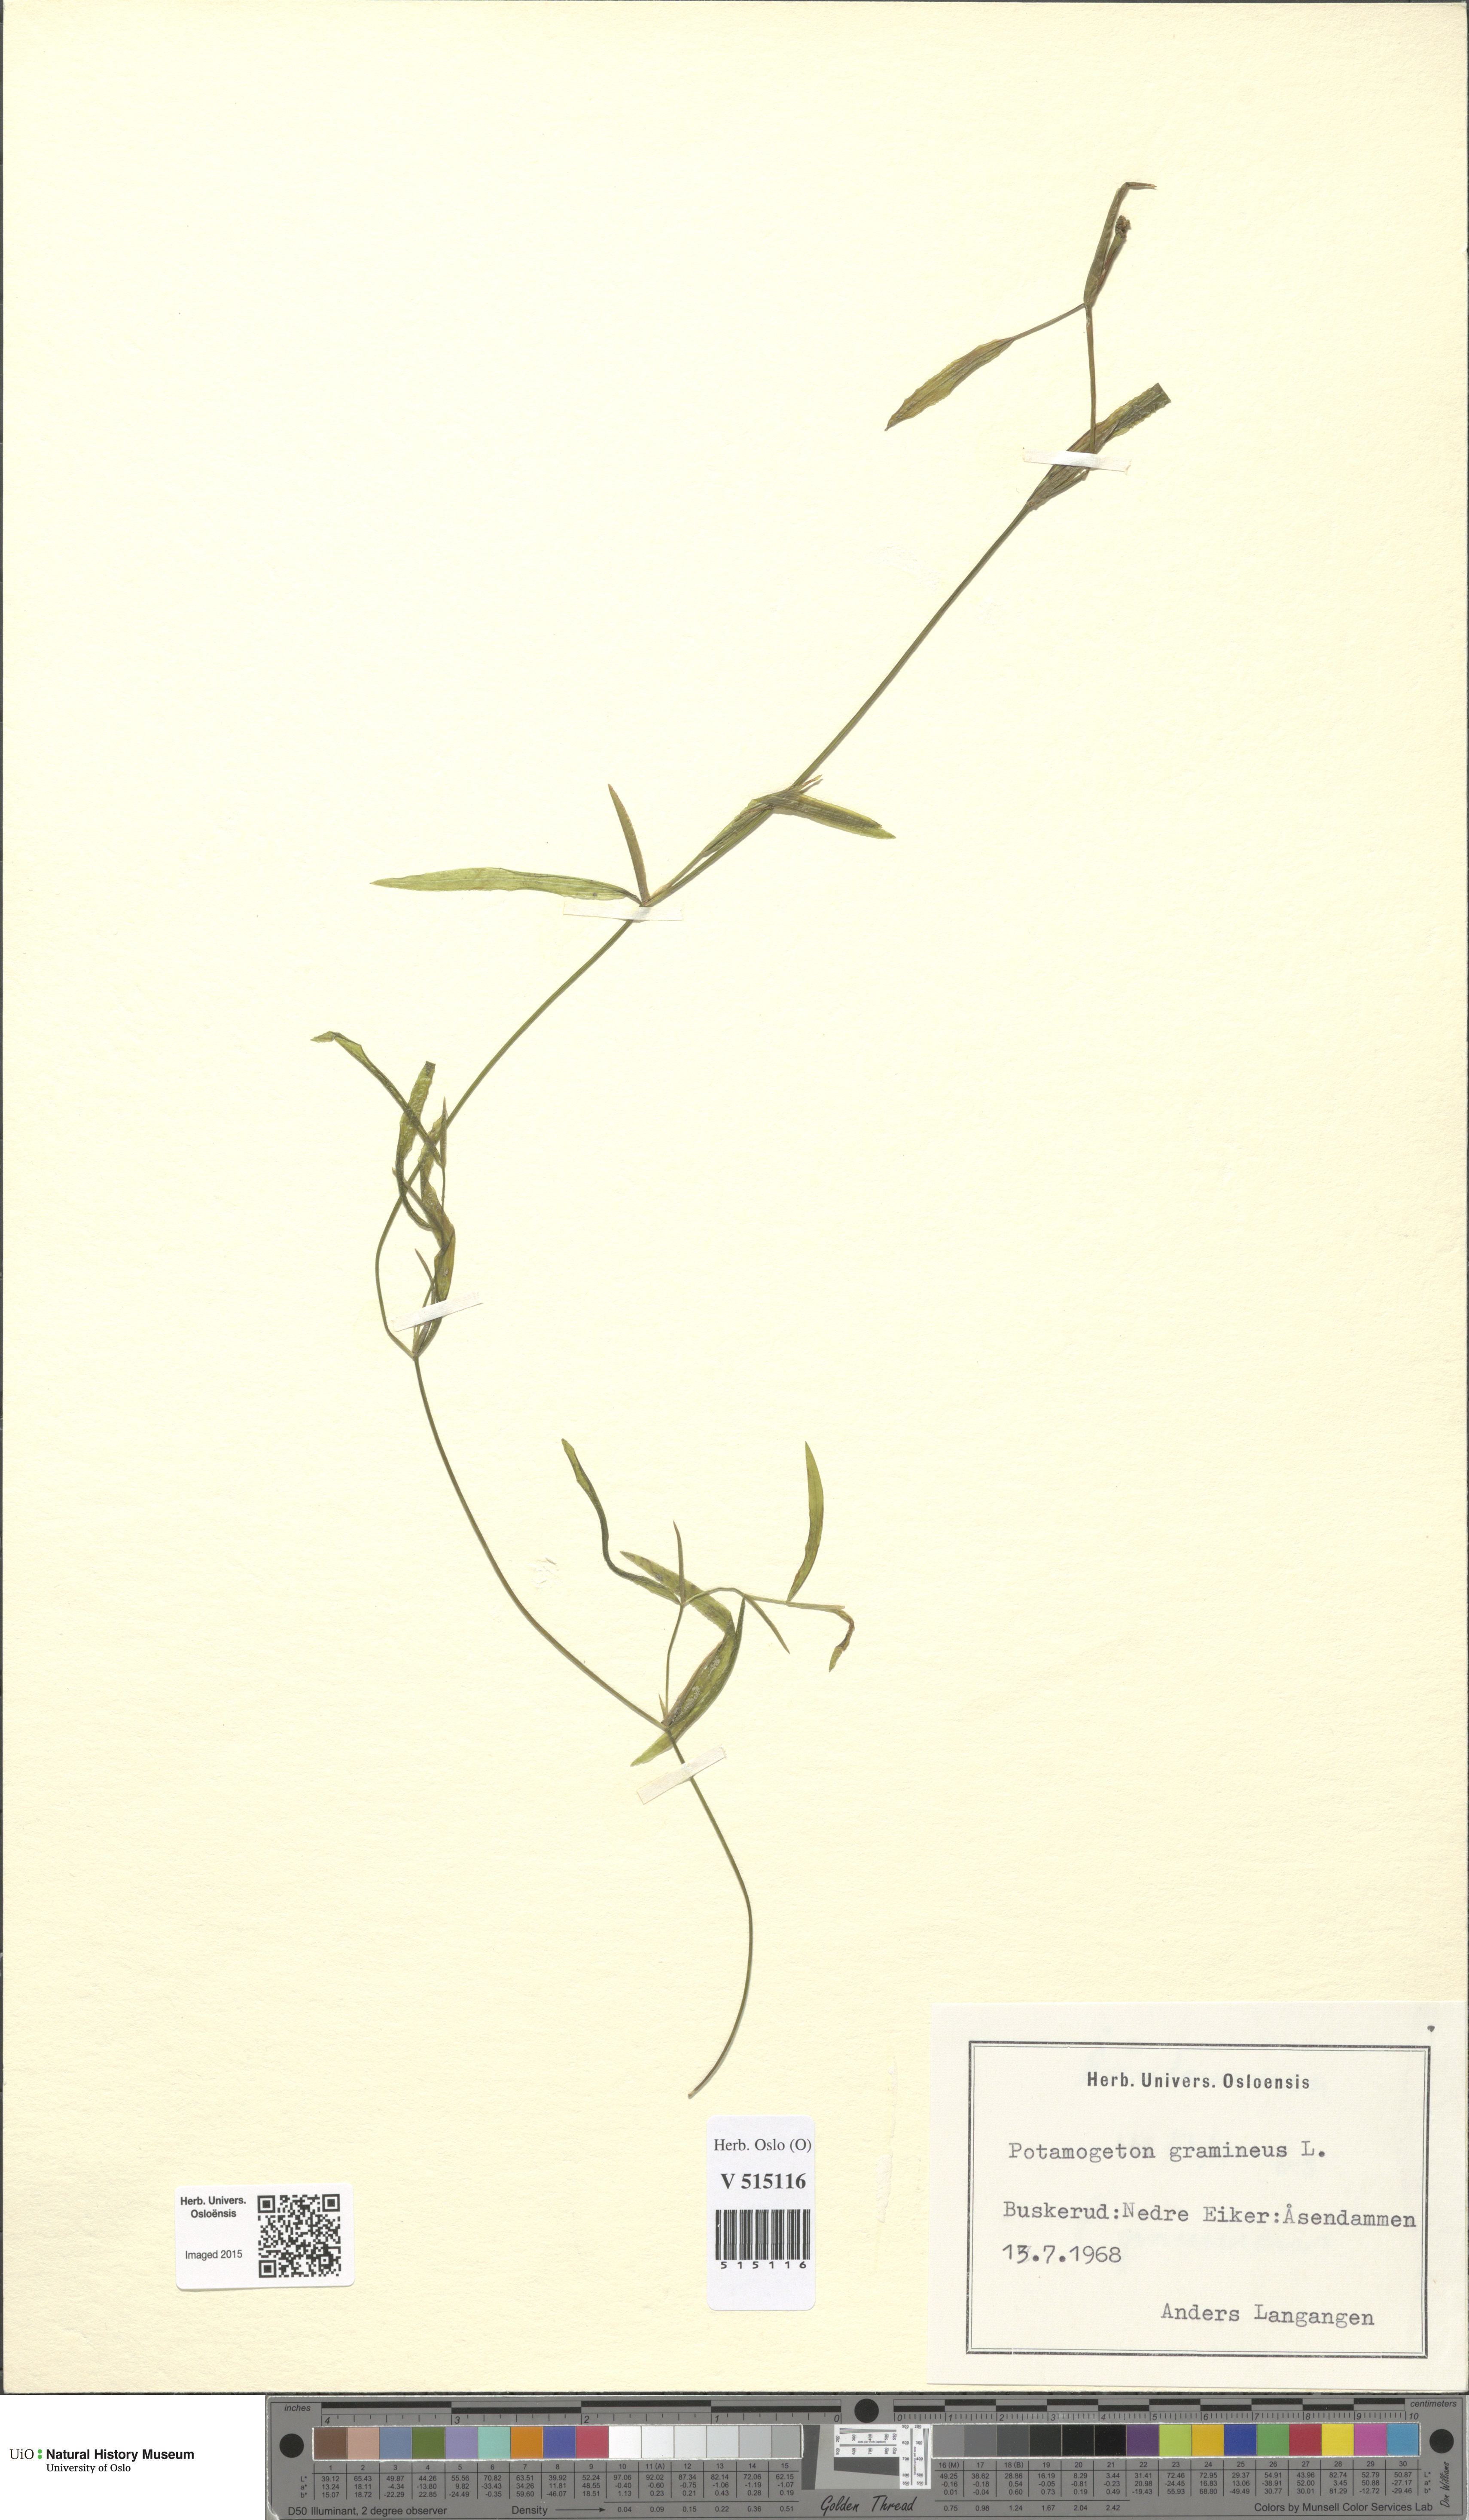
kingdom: Plantae
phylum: Tracheophyta
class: Liliopsida
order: Alismatales
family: Potamogetonaceae
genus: Potamogeton
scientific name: Potamogeton gramineus
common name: Various-leaved pondweed
